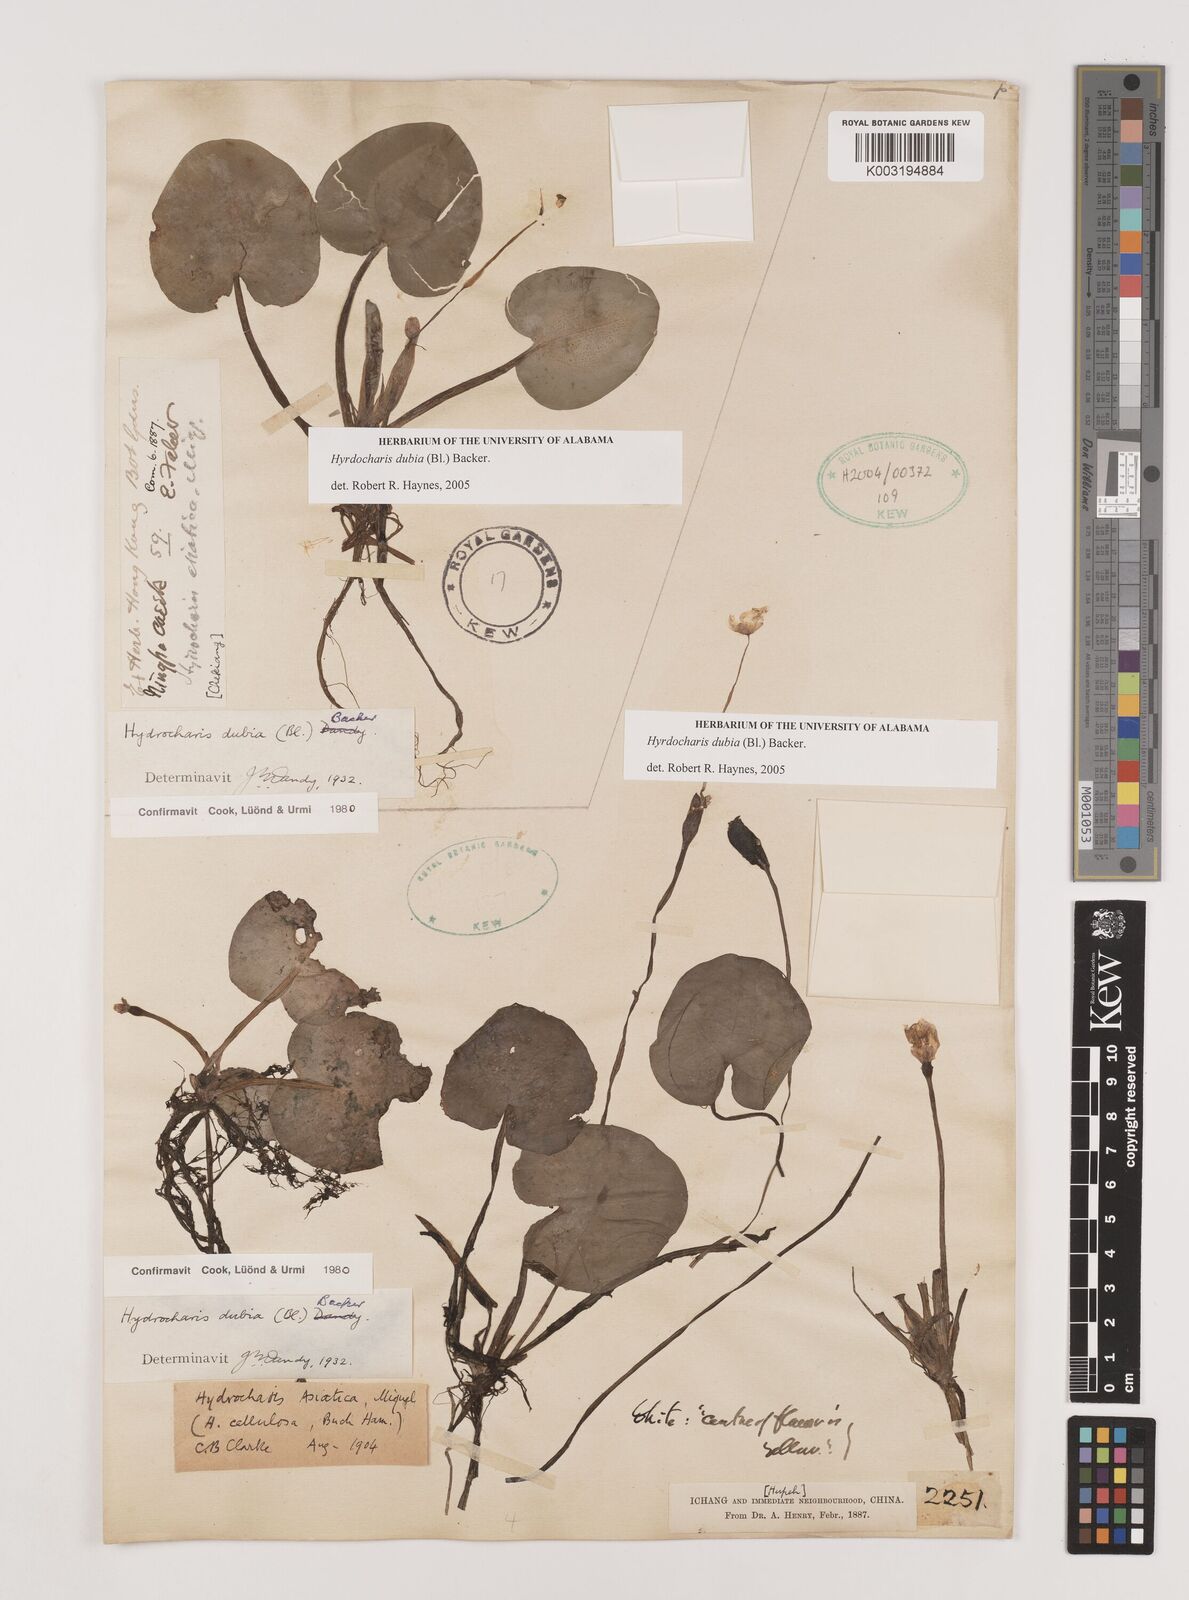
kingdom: Plantae
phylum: Tracheophyta
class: Liliopsida
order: Alismatales
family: Hydrocharitaceae
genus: Hydrocharis
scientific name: Hydrocharis dubia
